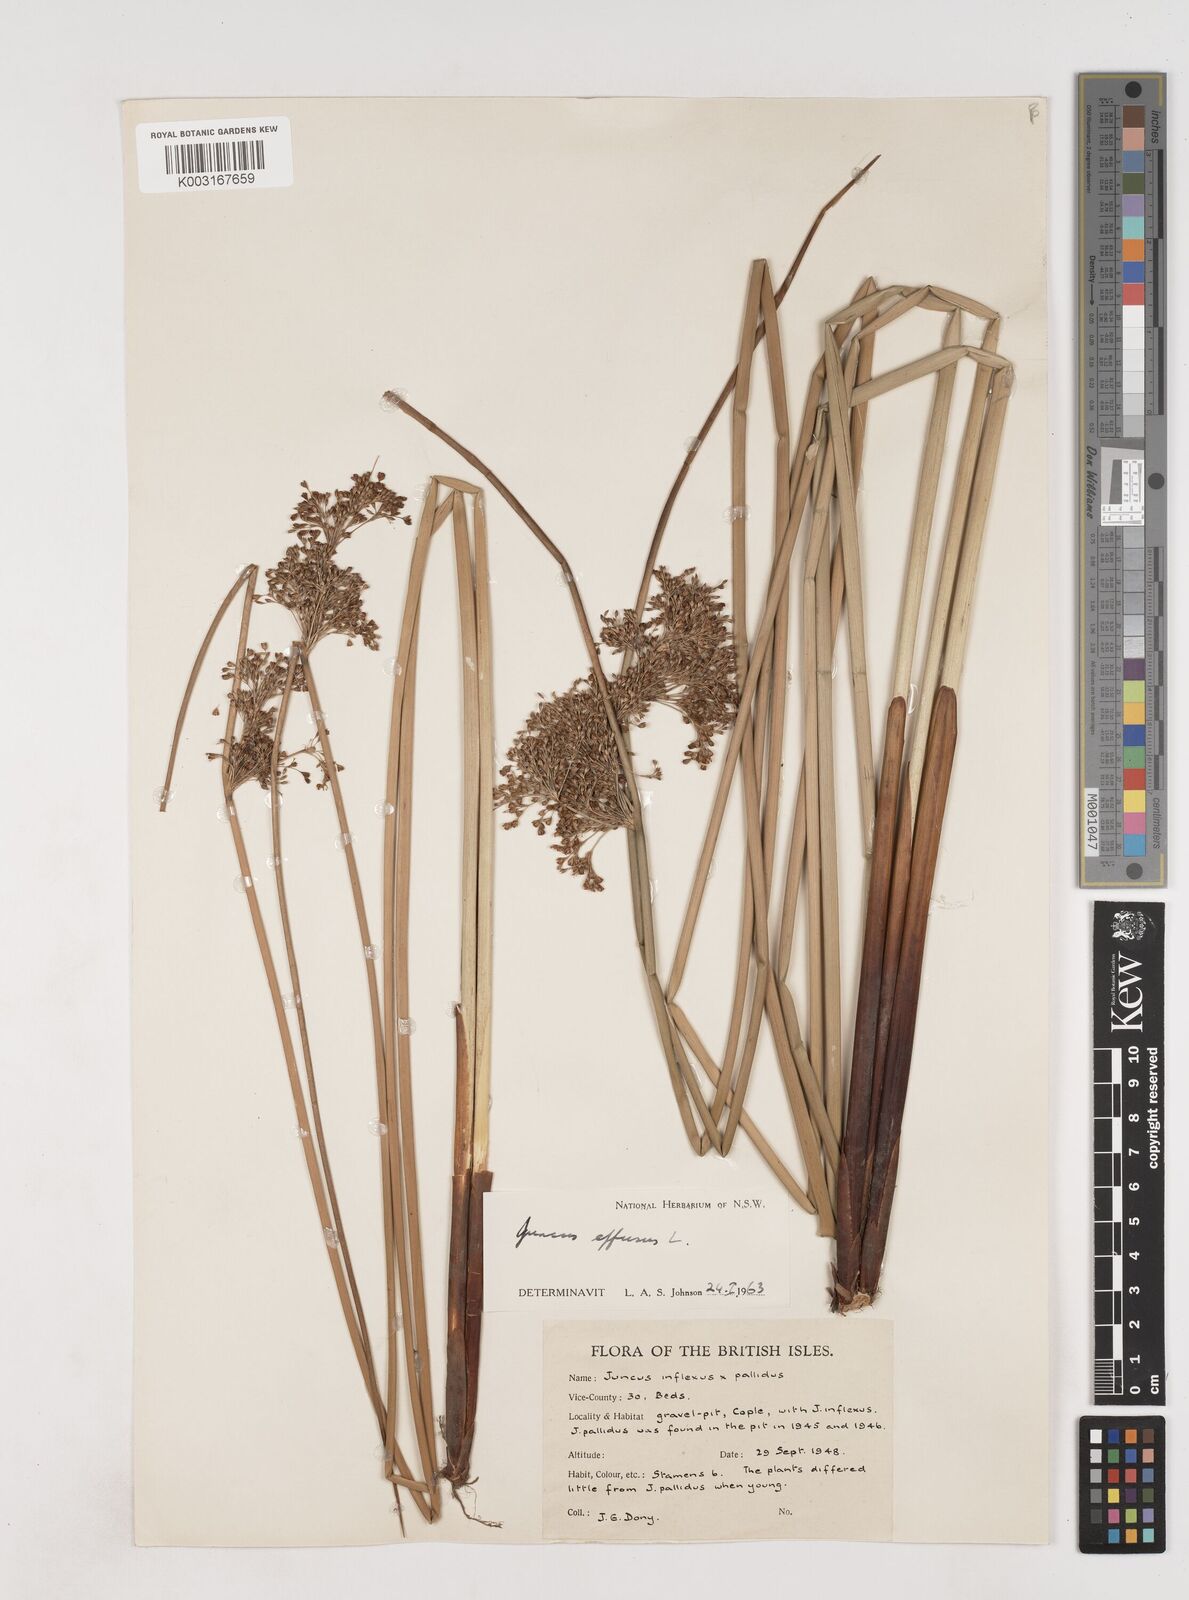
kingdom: Plantae
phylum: Tracheophyta
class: Liliopsida
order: Poales
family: Juncaceae
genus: Juncus
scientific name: Juncus effusus
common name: Soft rush
